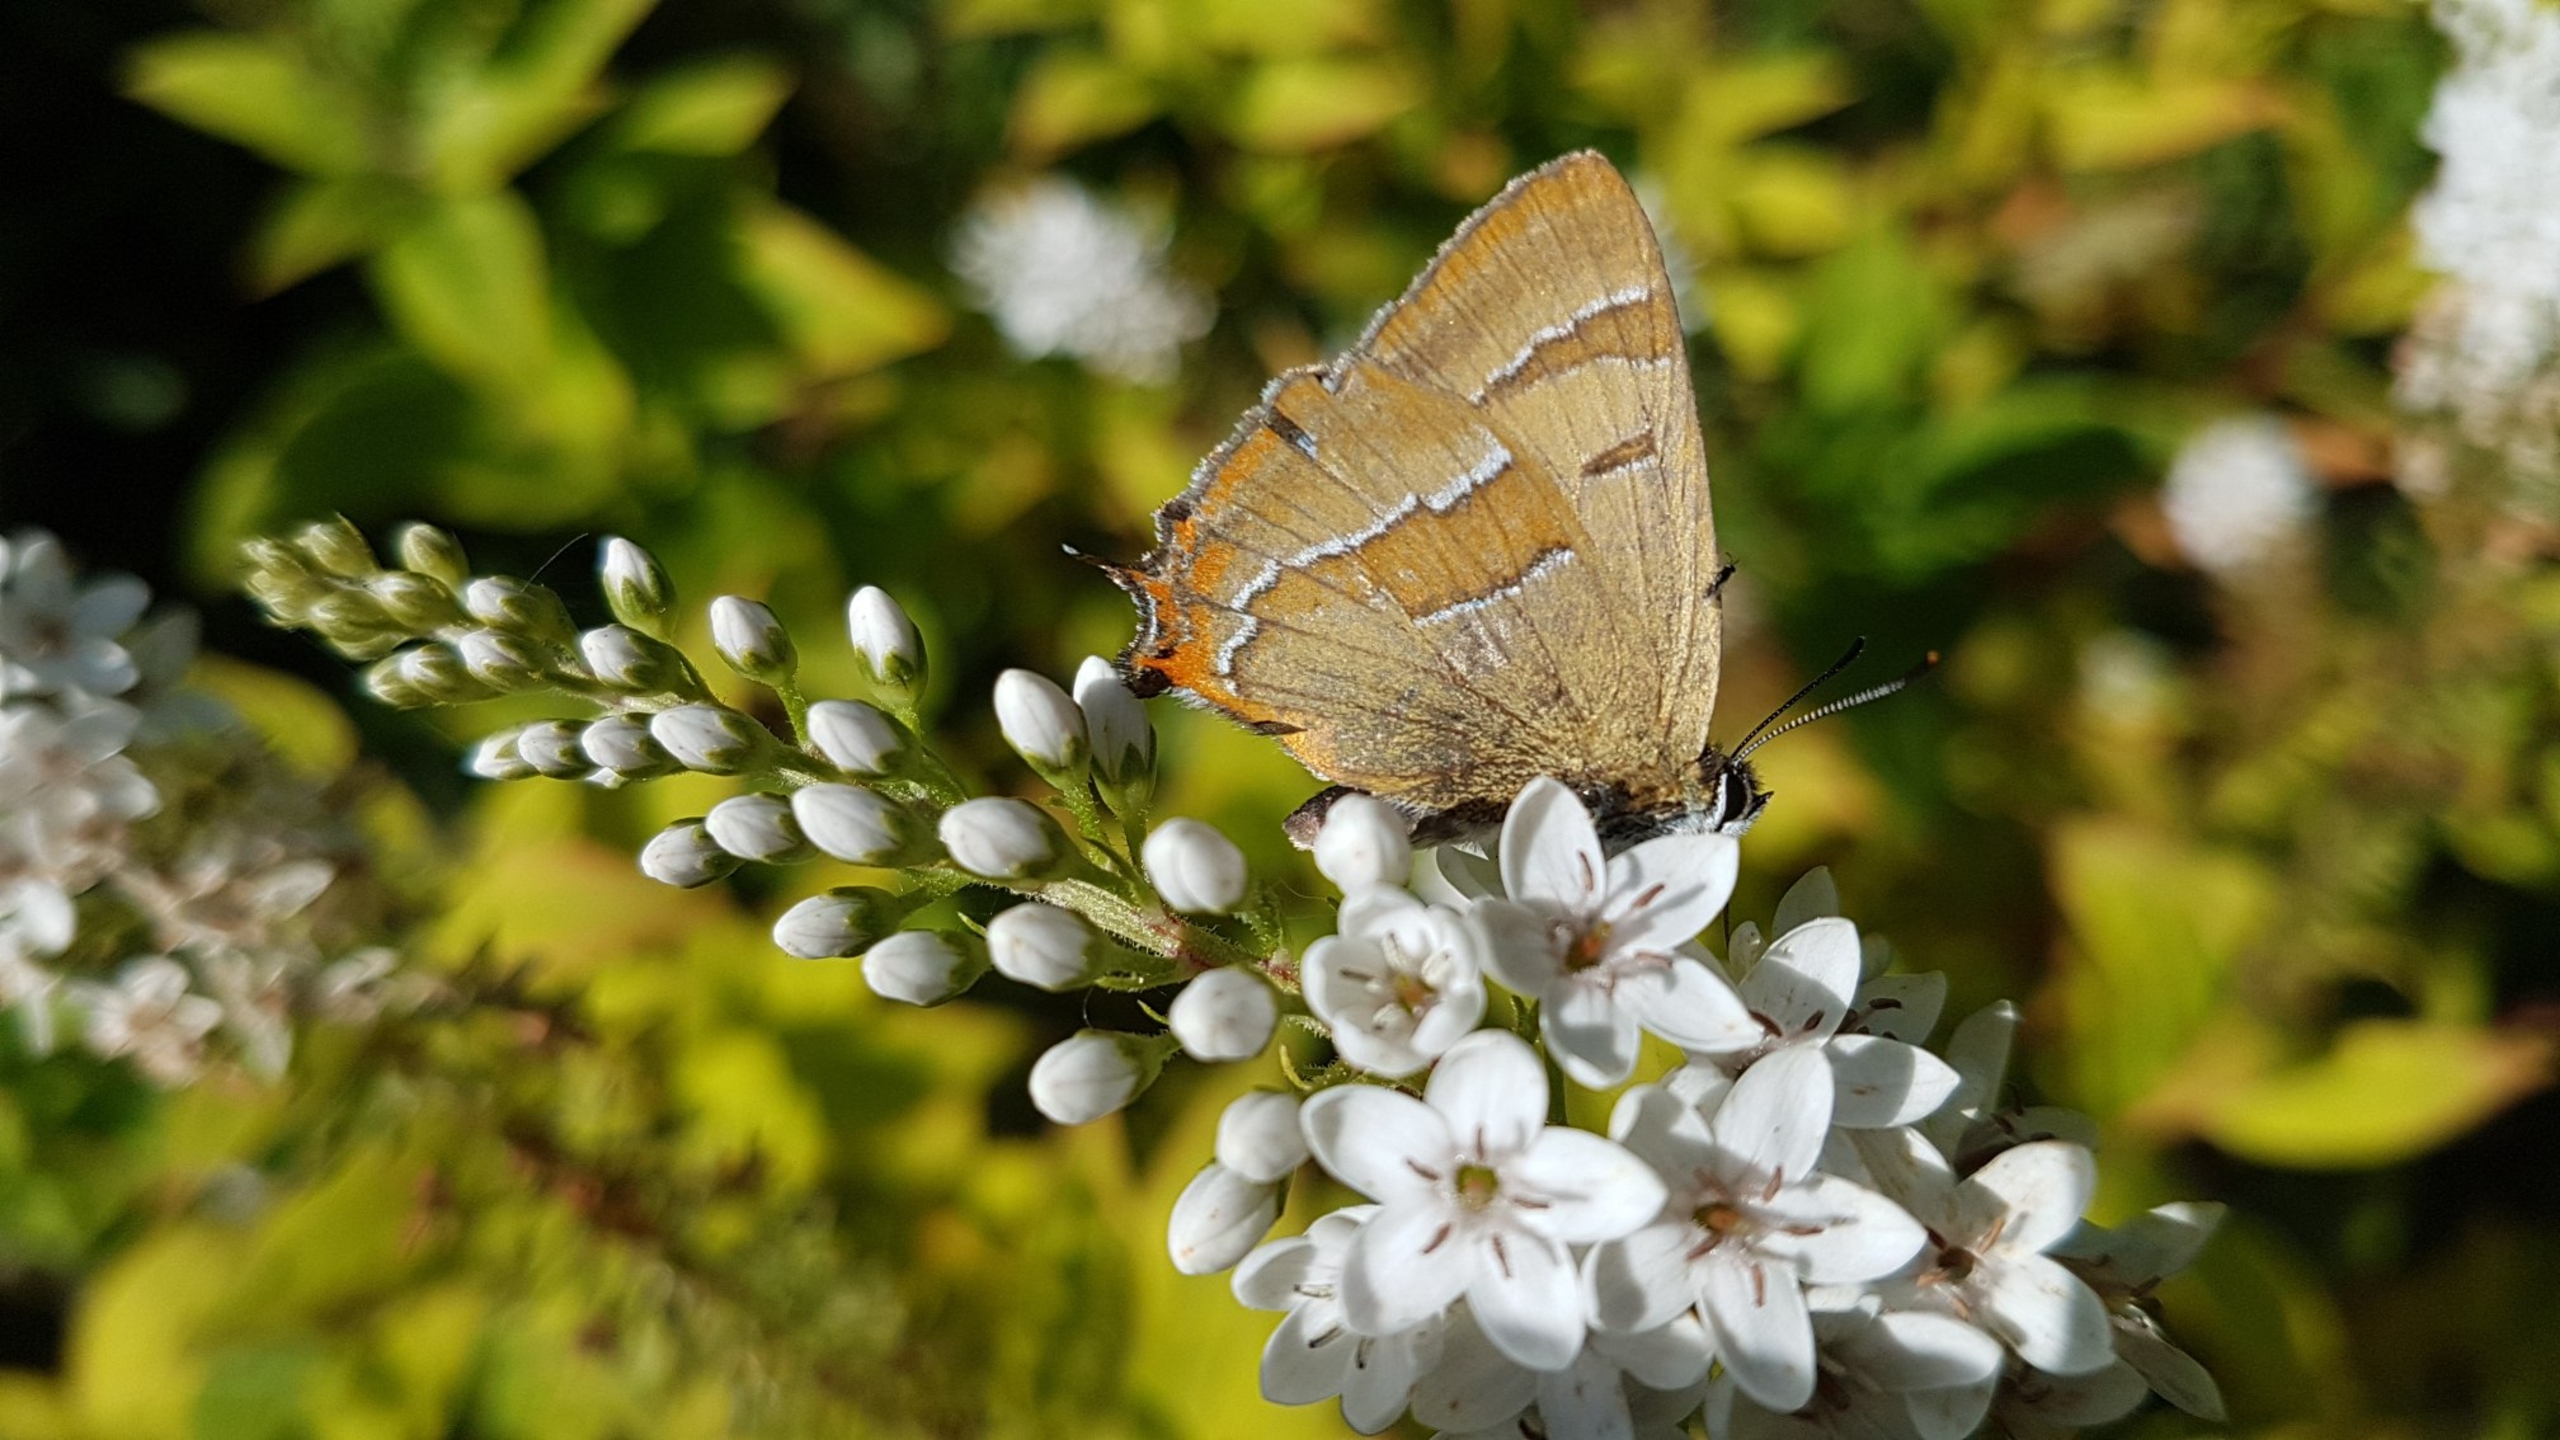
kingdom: Animalia
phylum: Arthropoda
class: Insecta
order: Lepidoptera
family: Lycaenidae
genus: Thecla
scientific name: Thecla betulae
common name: Guldhale
